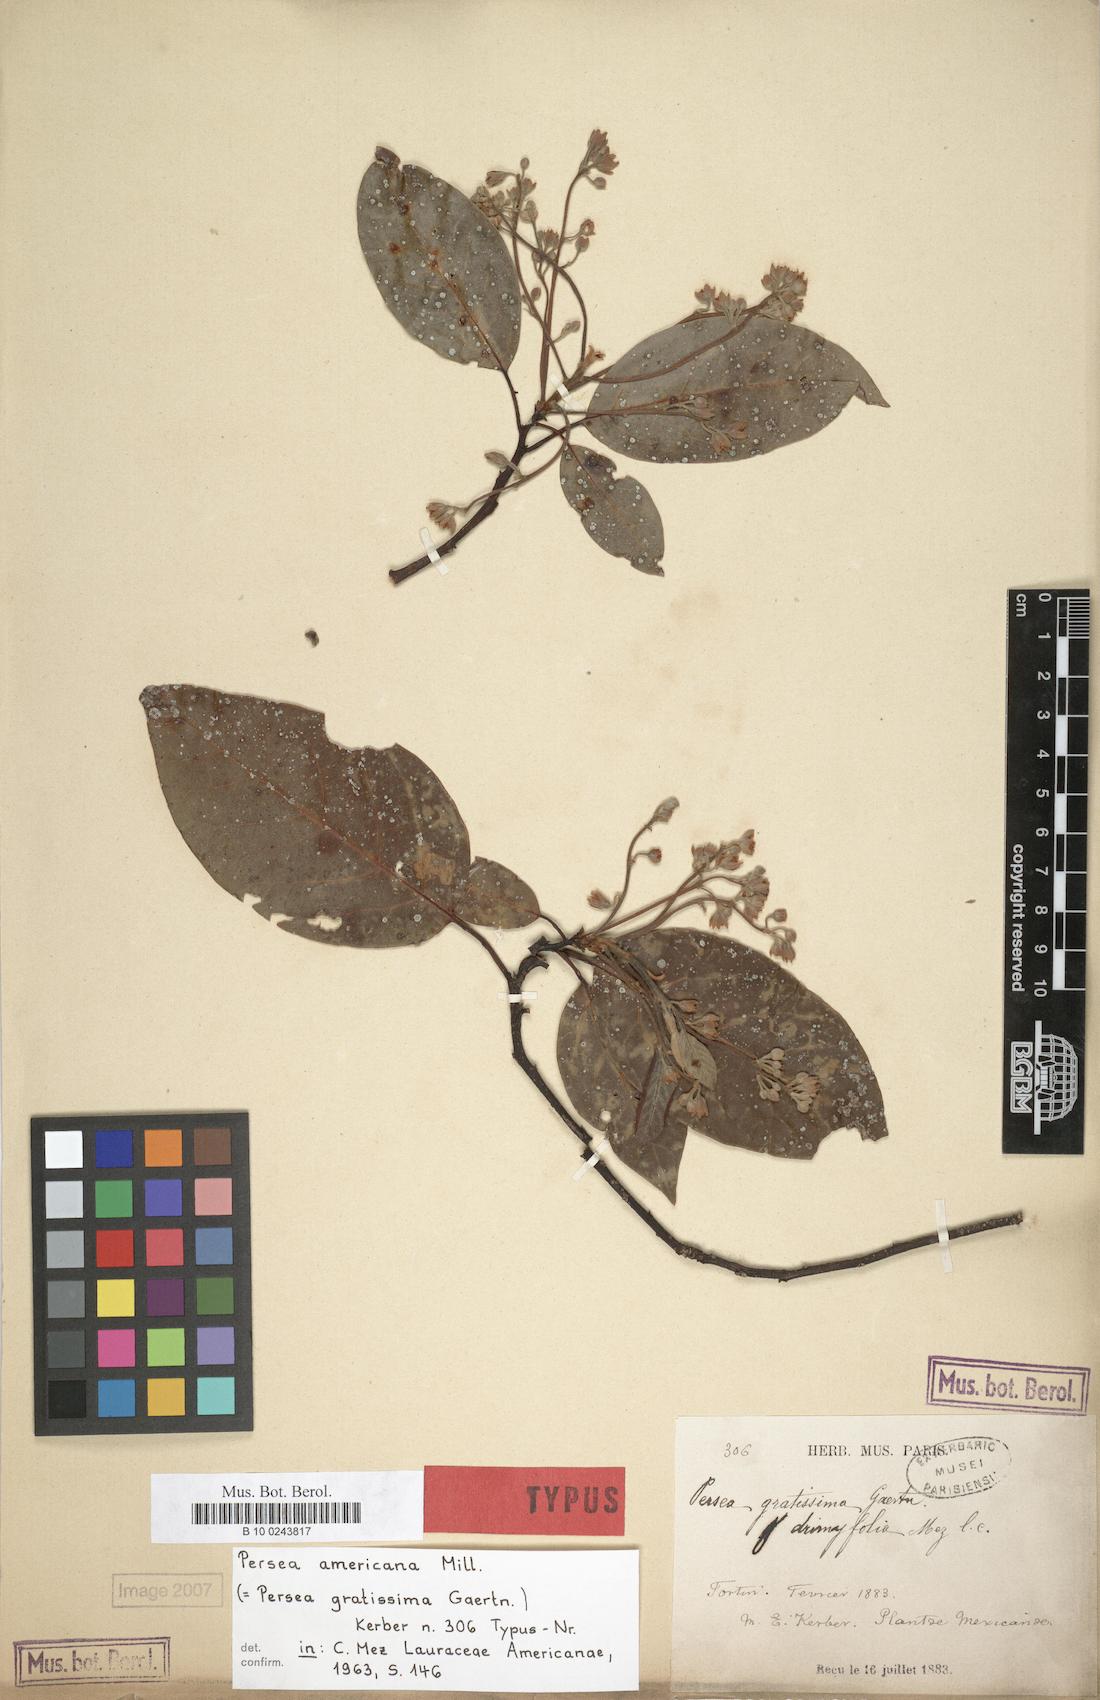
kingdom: Plantae
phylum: Tracheophyta
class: Magnoliopsida
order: Laurales
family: Lauraceae
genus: Persea
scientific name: Persea americana
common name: Avocado
